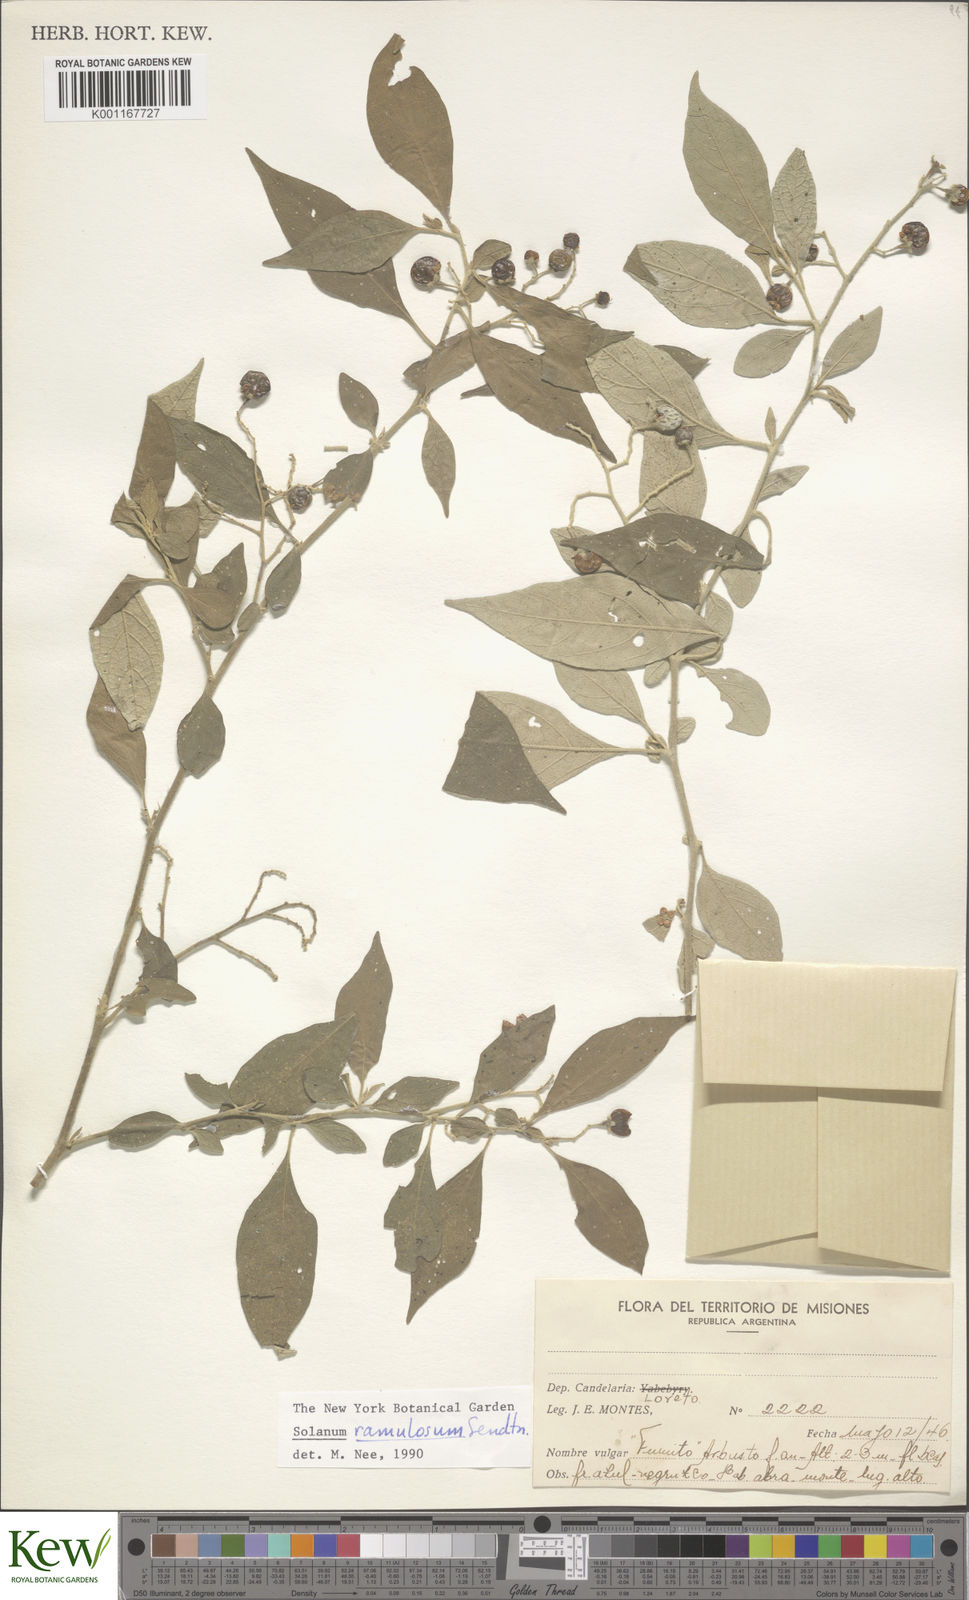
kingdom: Plantae
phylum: Tracheophyta
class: Magnoliopsida
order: Solanales
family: Solanaceae
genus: Solanum
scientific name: Solanum ramulosum
